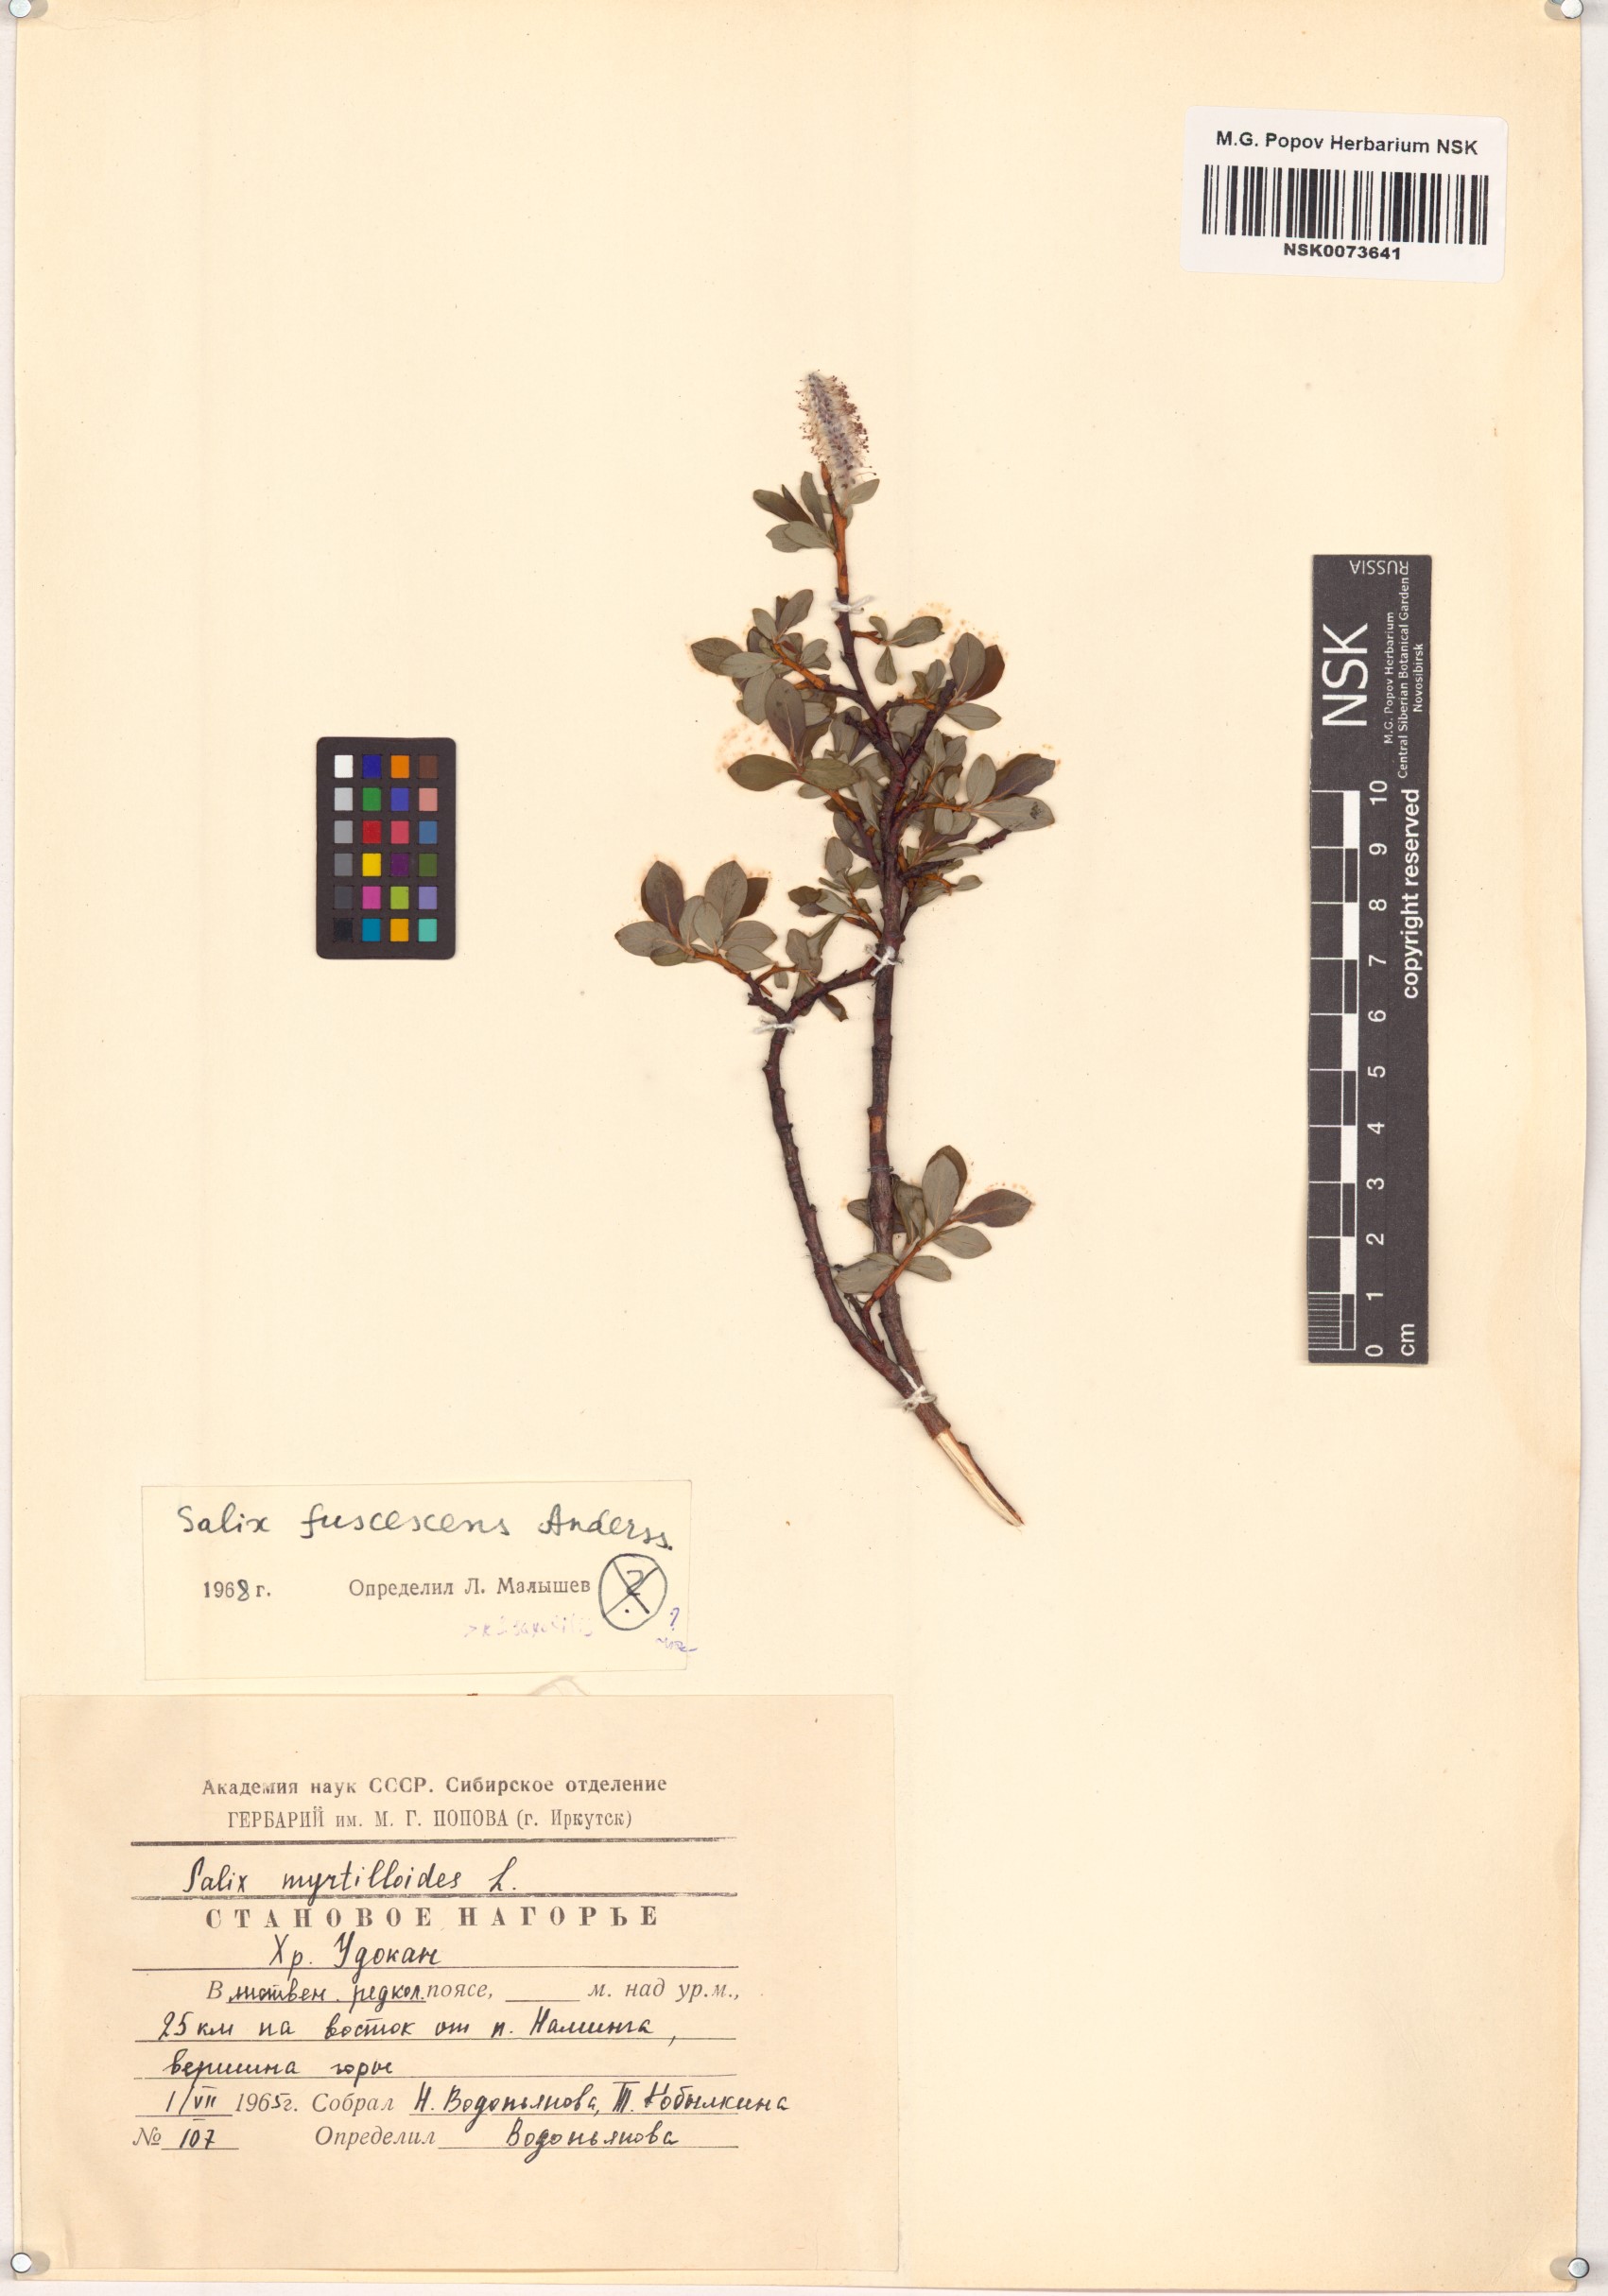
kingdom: Plantae
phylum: Tracheophyta
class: Magnoliopsida
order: Malpighiales
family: Salicaceae
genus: Salix
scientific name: Salix fuscescens
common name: Brownish willow
